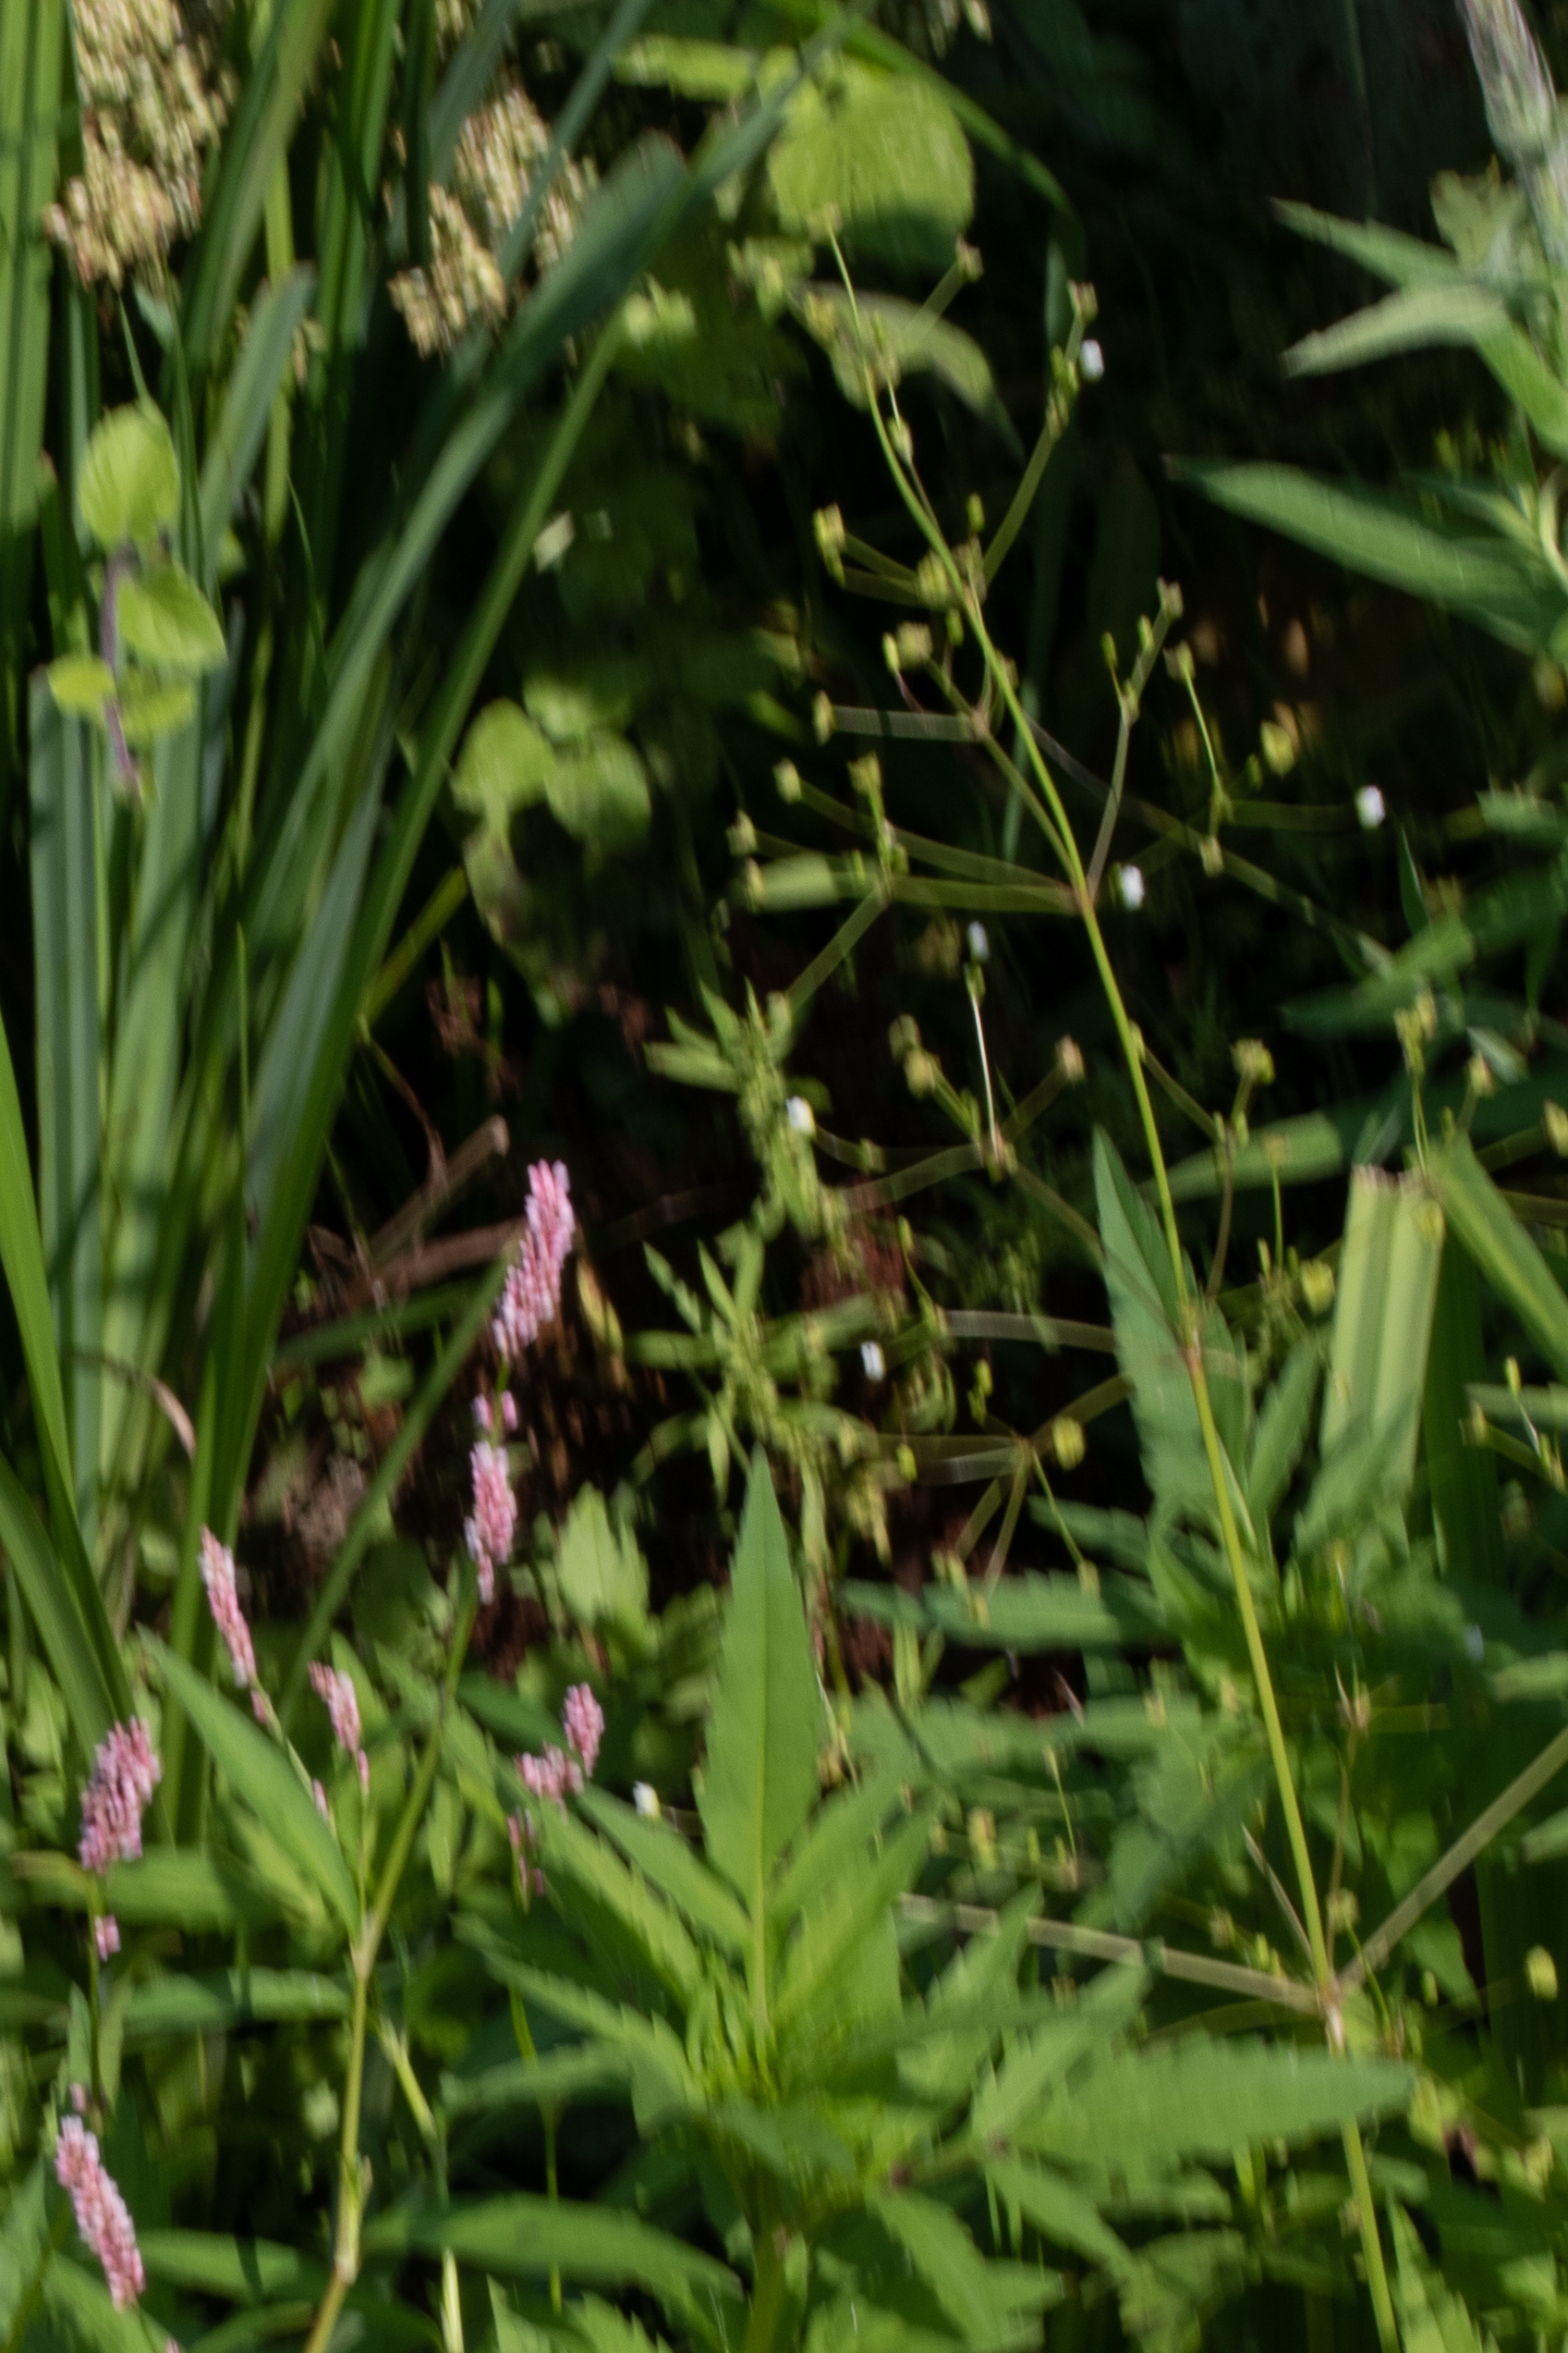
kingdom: Plantae
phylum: Tracheophyta
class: Liliopsida
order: Alismatales
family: Alismataceae
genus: Alisma
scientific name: Alisma plantago-aquatica
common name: Vejbred-skeblad
